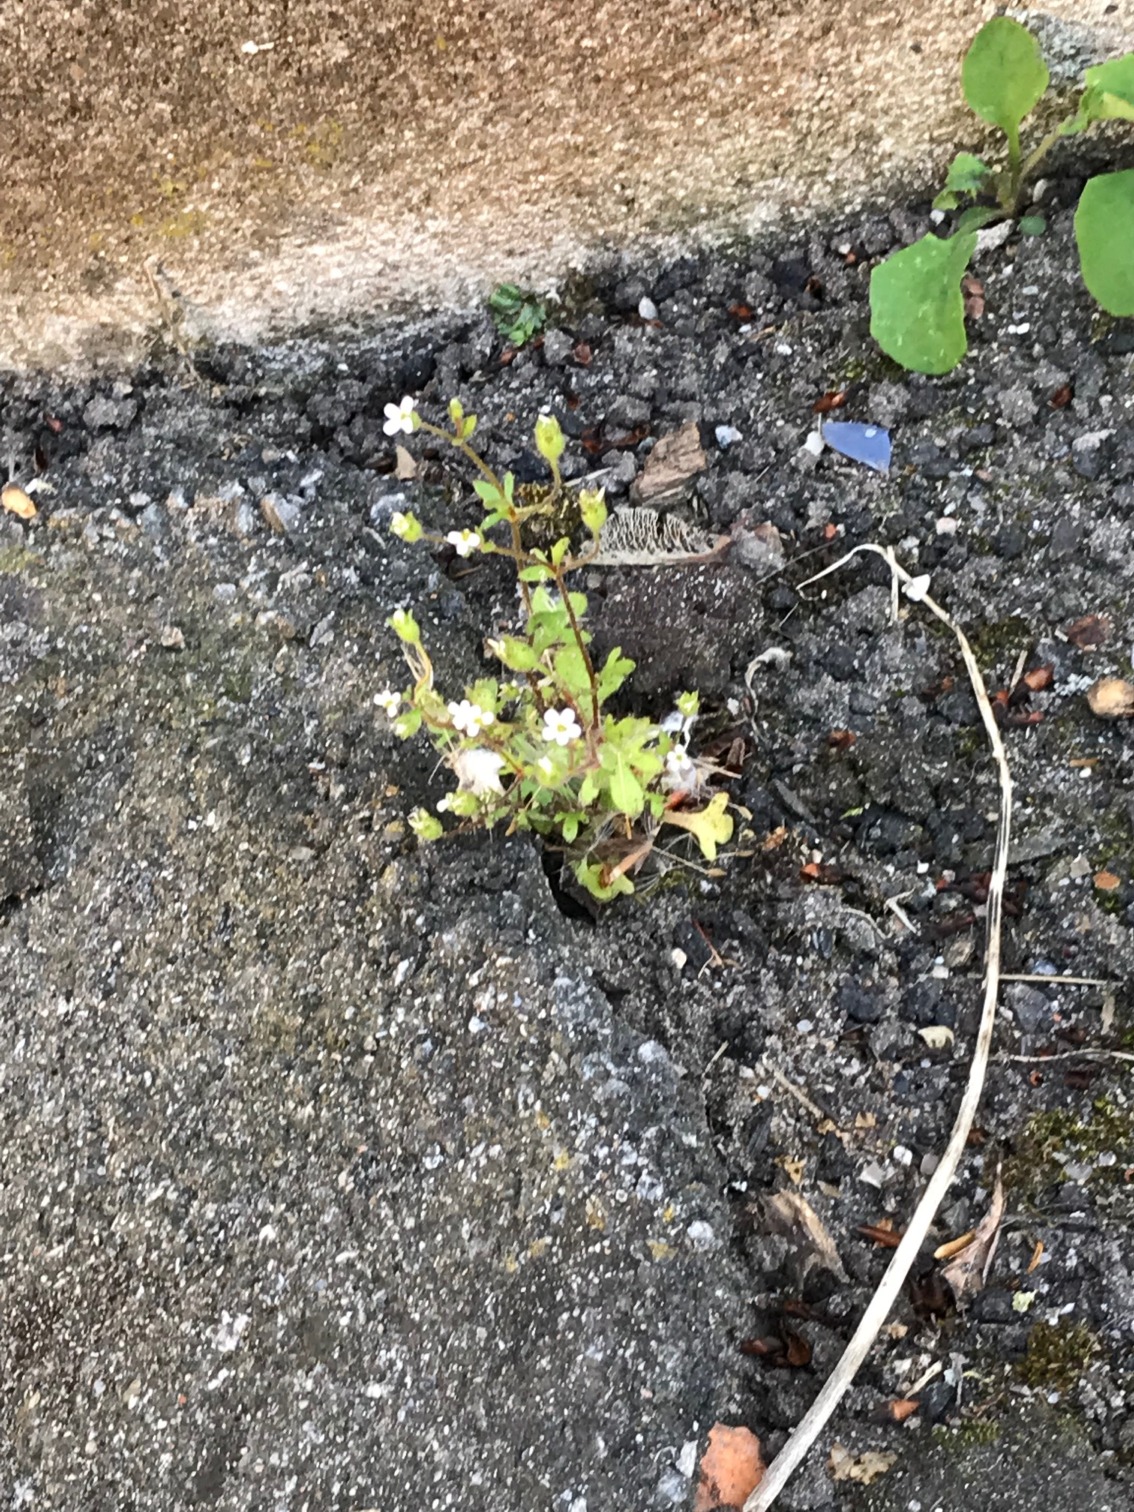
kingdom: Plantae
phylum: Tracheophyta
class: Magnoliopsida
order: Saxifragales
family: Saxifragaceae
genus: Saxifraga
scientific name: Saxifraga tridactylites
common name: Trekløft-stenbræk
